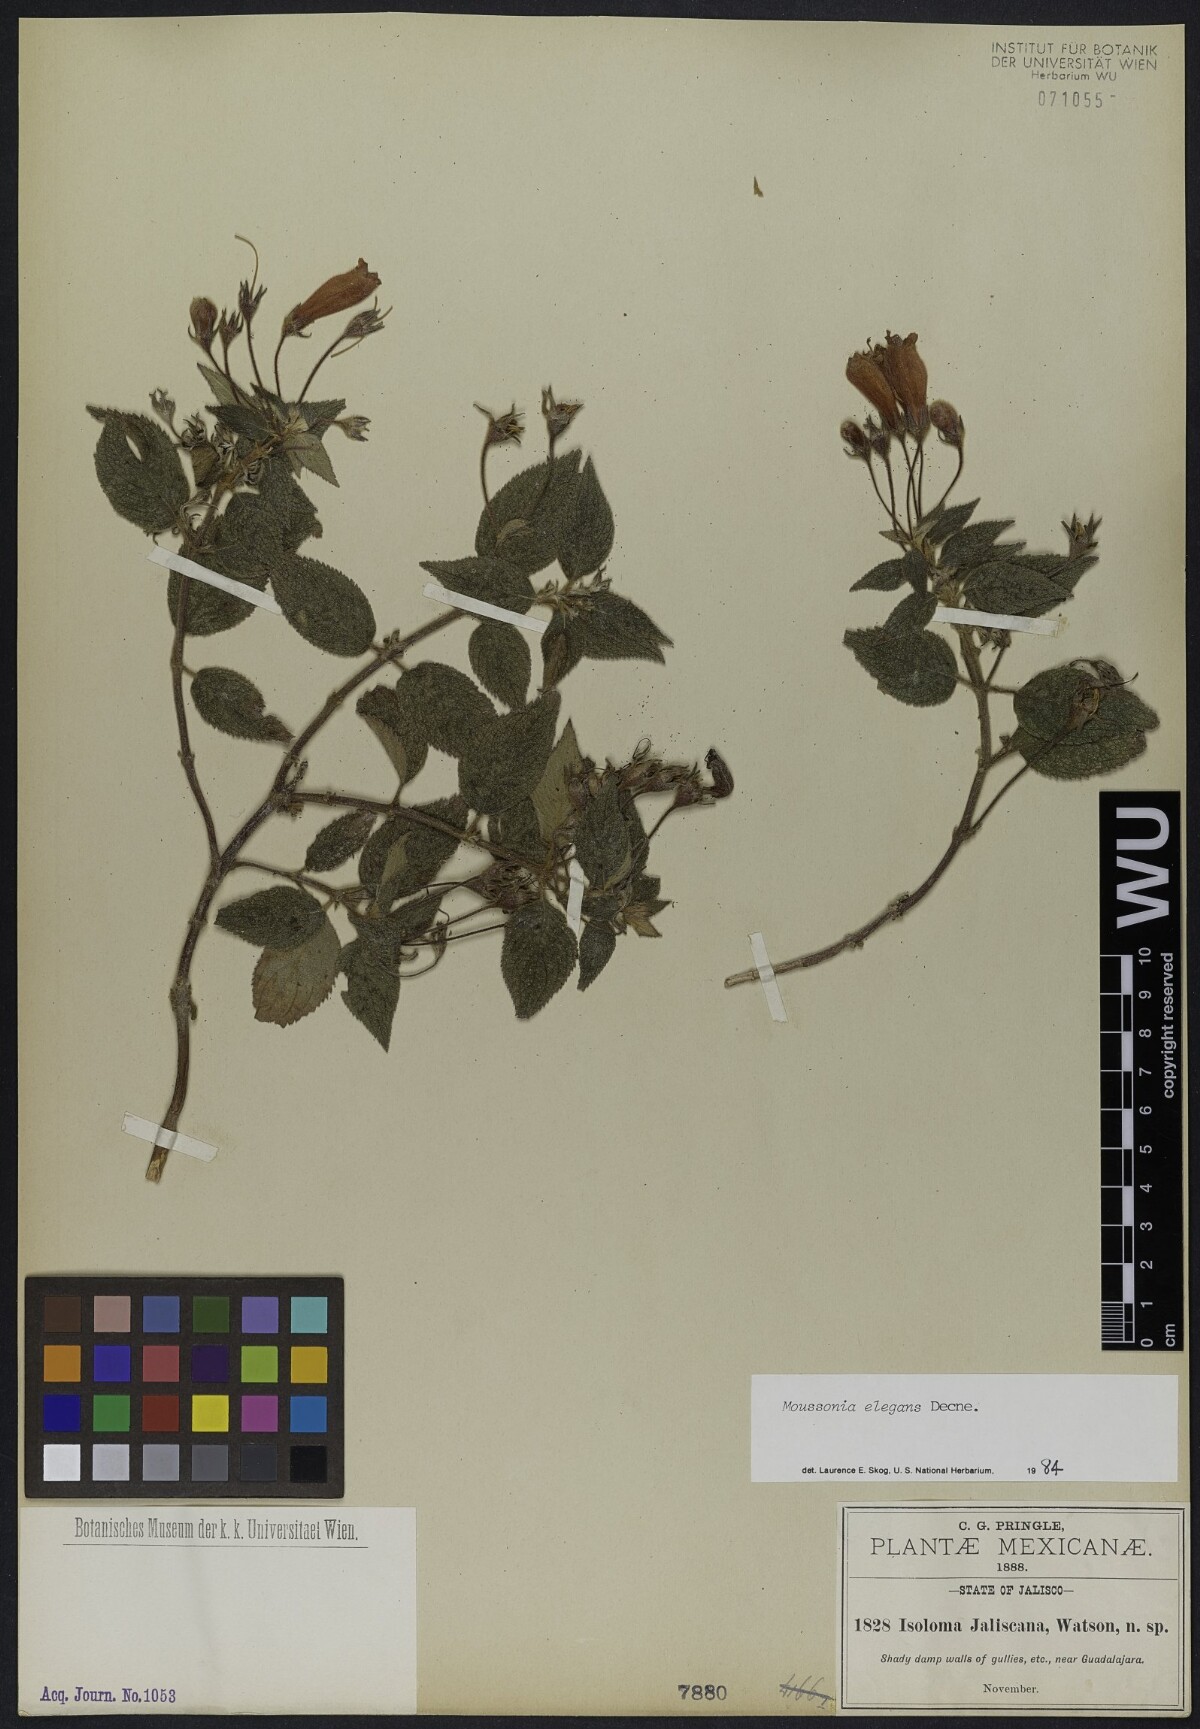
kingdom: Plantae
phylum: Tracheophyta
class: Magnoliopsida
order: Lamiales
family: Gesneriaceae
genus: Moussonia
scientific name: Moussonia jaliscana
